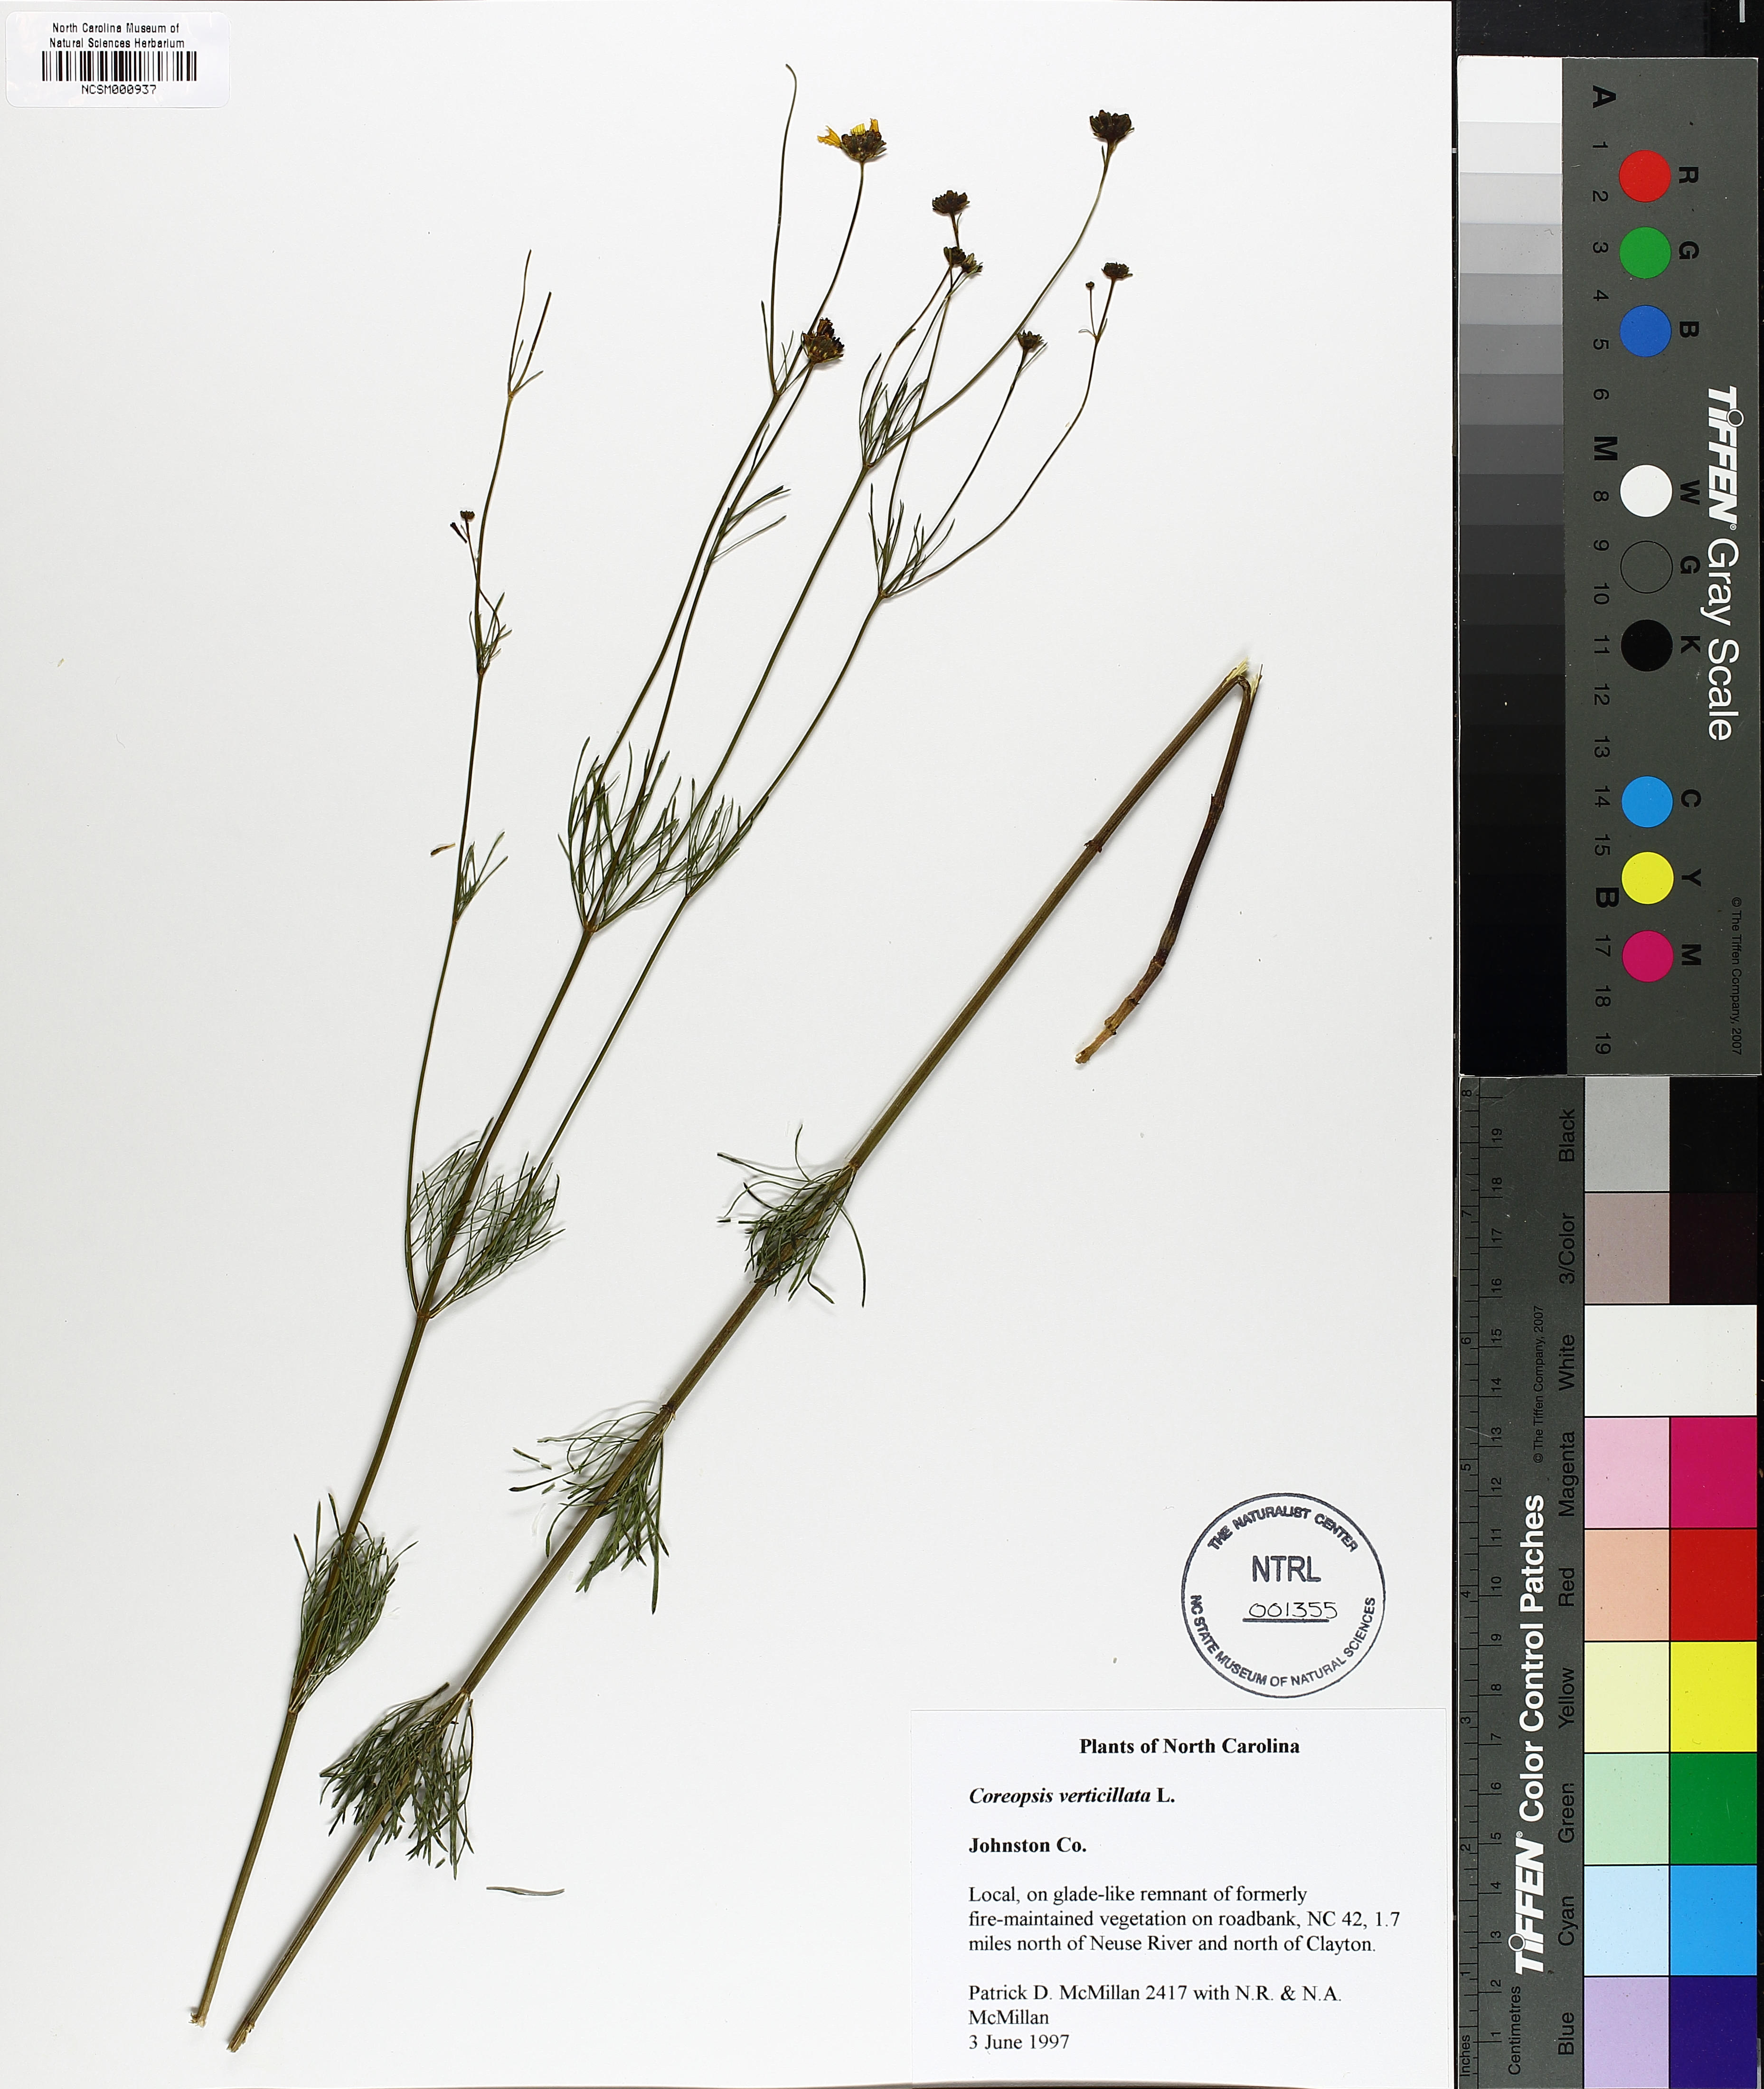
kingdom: Plantae
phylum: Tracheophyta
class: Magnoliopsida
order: Asterales
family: Asteraceae
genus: Coreopsis
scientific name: Coreopsis verticillata
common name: Whorled tickseed
